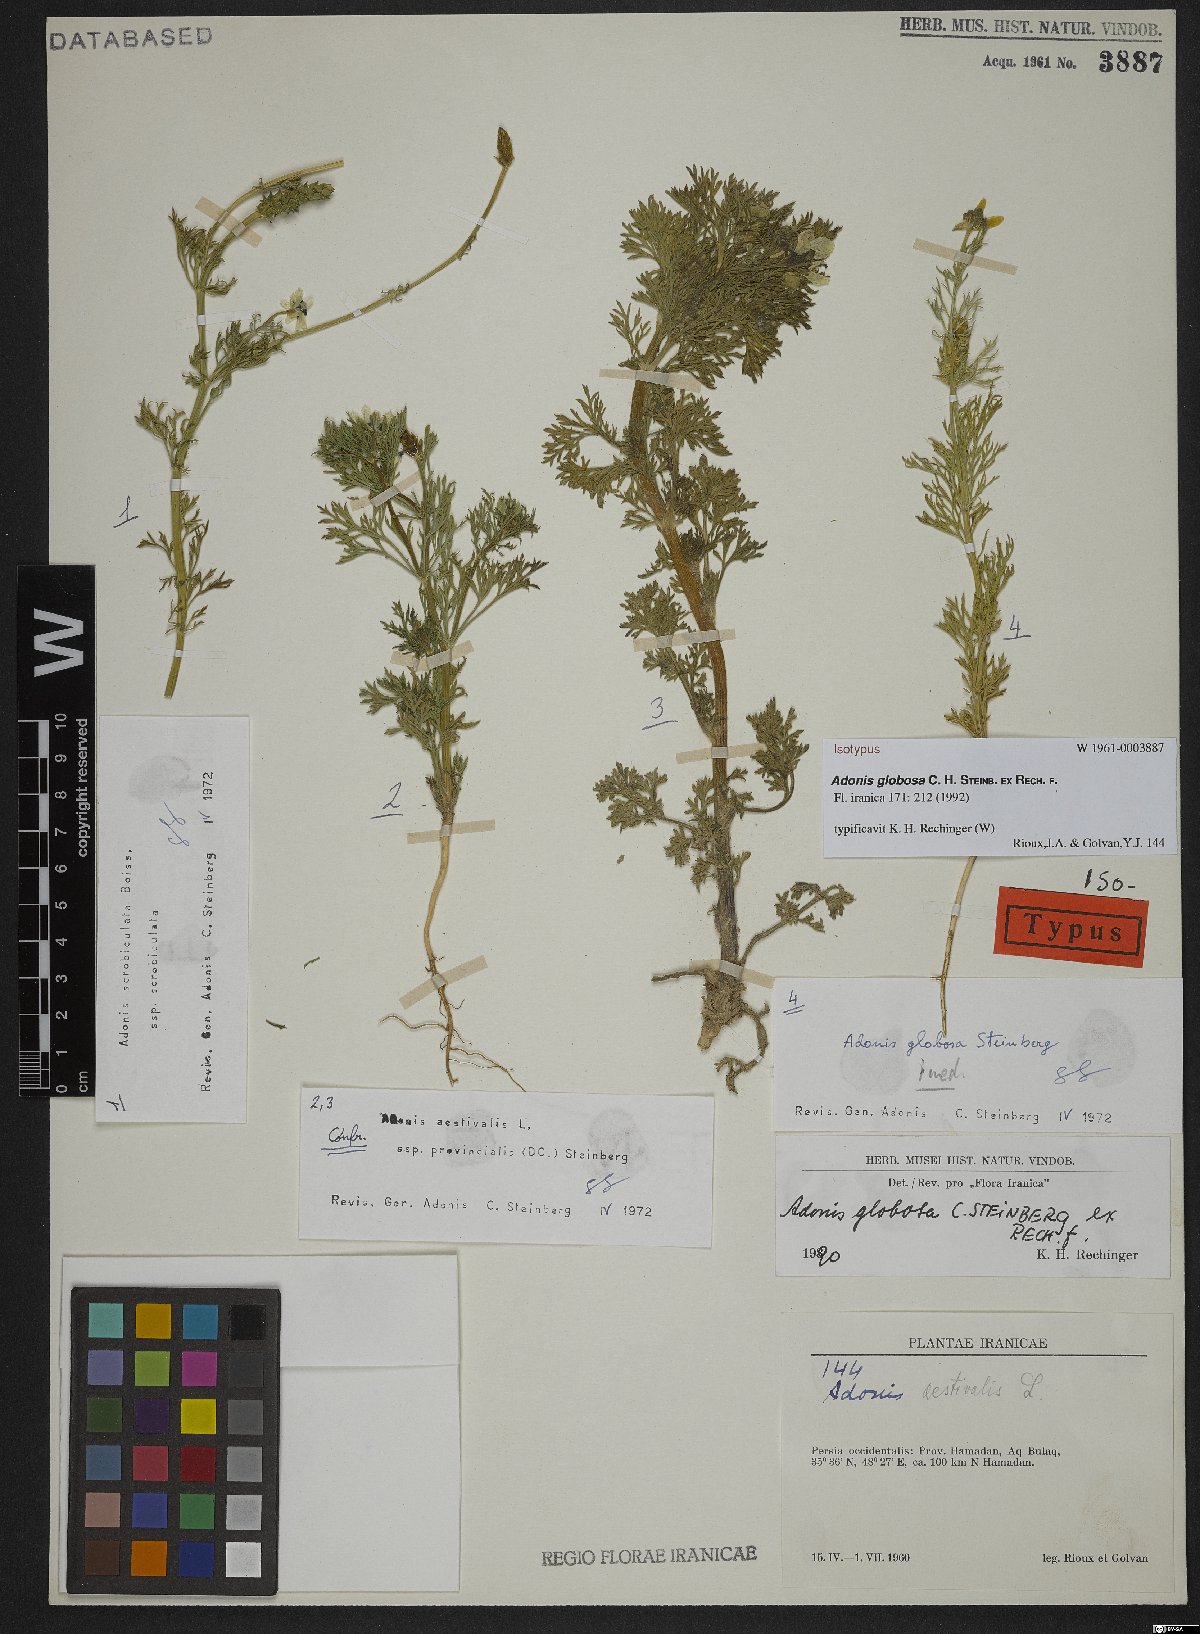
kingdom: Plantae
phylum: Tracheophyta
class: Magnoliopsida
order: Ranunculales
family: Ranunculaceae
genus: Adonis
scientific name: Adonis globosa
